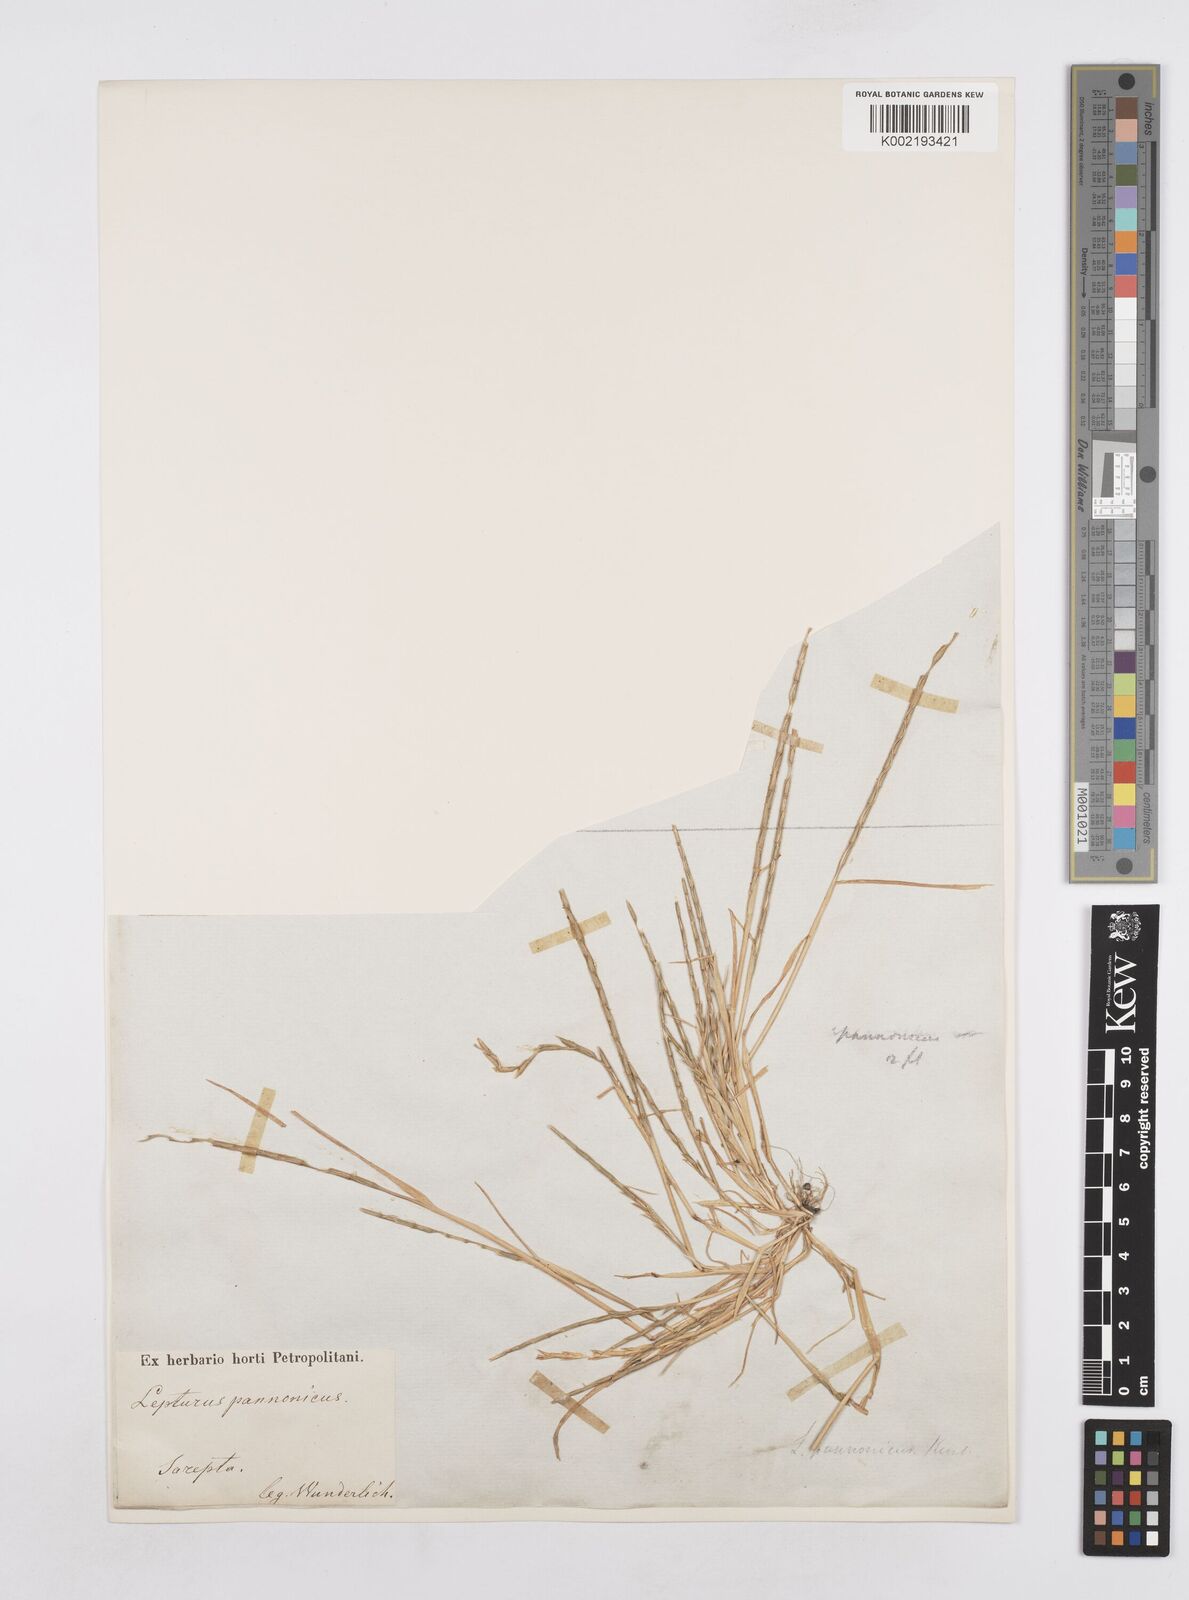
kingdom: Plantae
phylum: Tracheophyta
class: Liliopsida
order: Poales
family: Poaceae
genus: Pholiurus
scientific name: Pholiurus pannonicus
